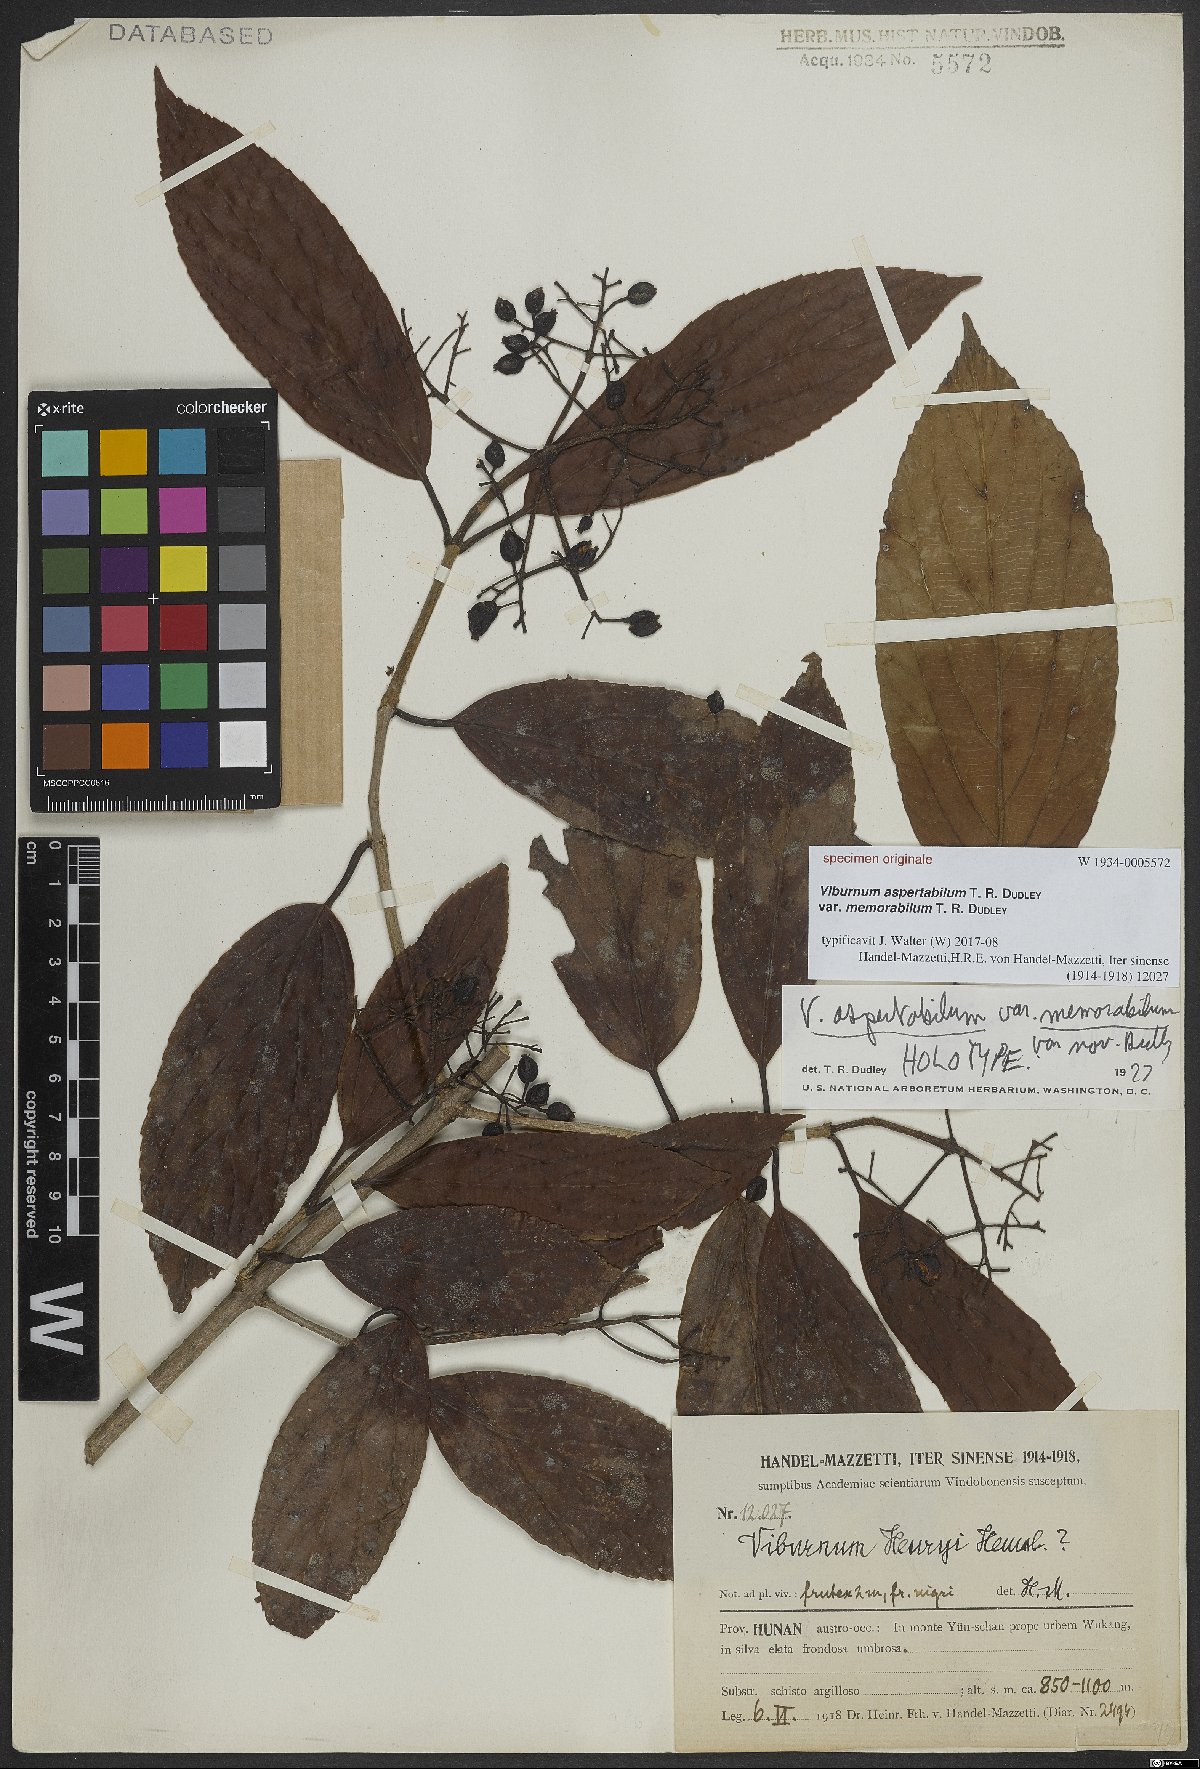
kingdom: Plantae
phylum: Tracheophyta
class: Magnoliopsida
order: Dipsacales
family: Viburnaceae
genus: Viburnum
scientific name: Viburnum
